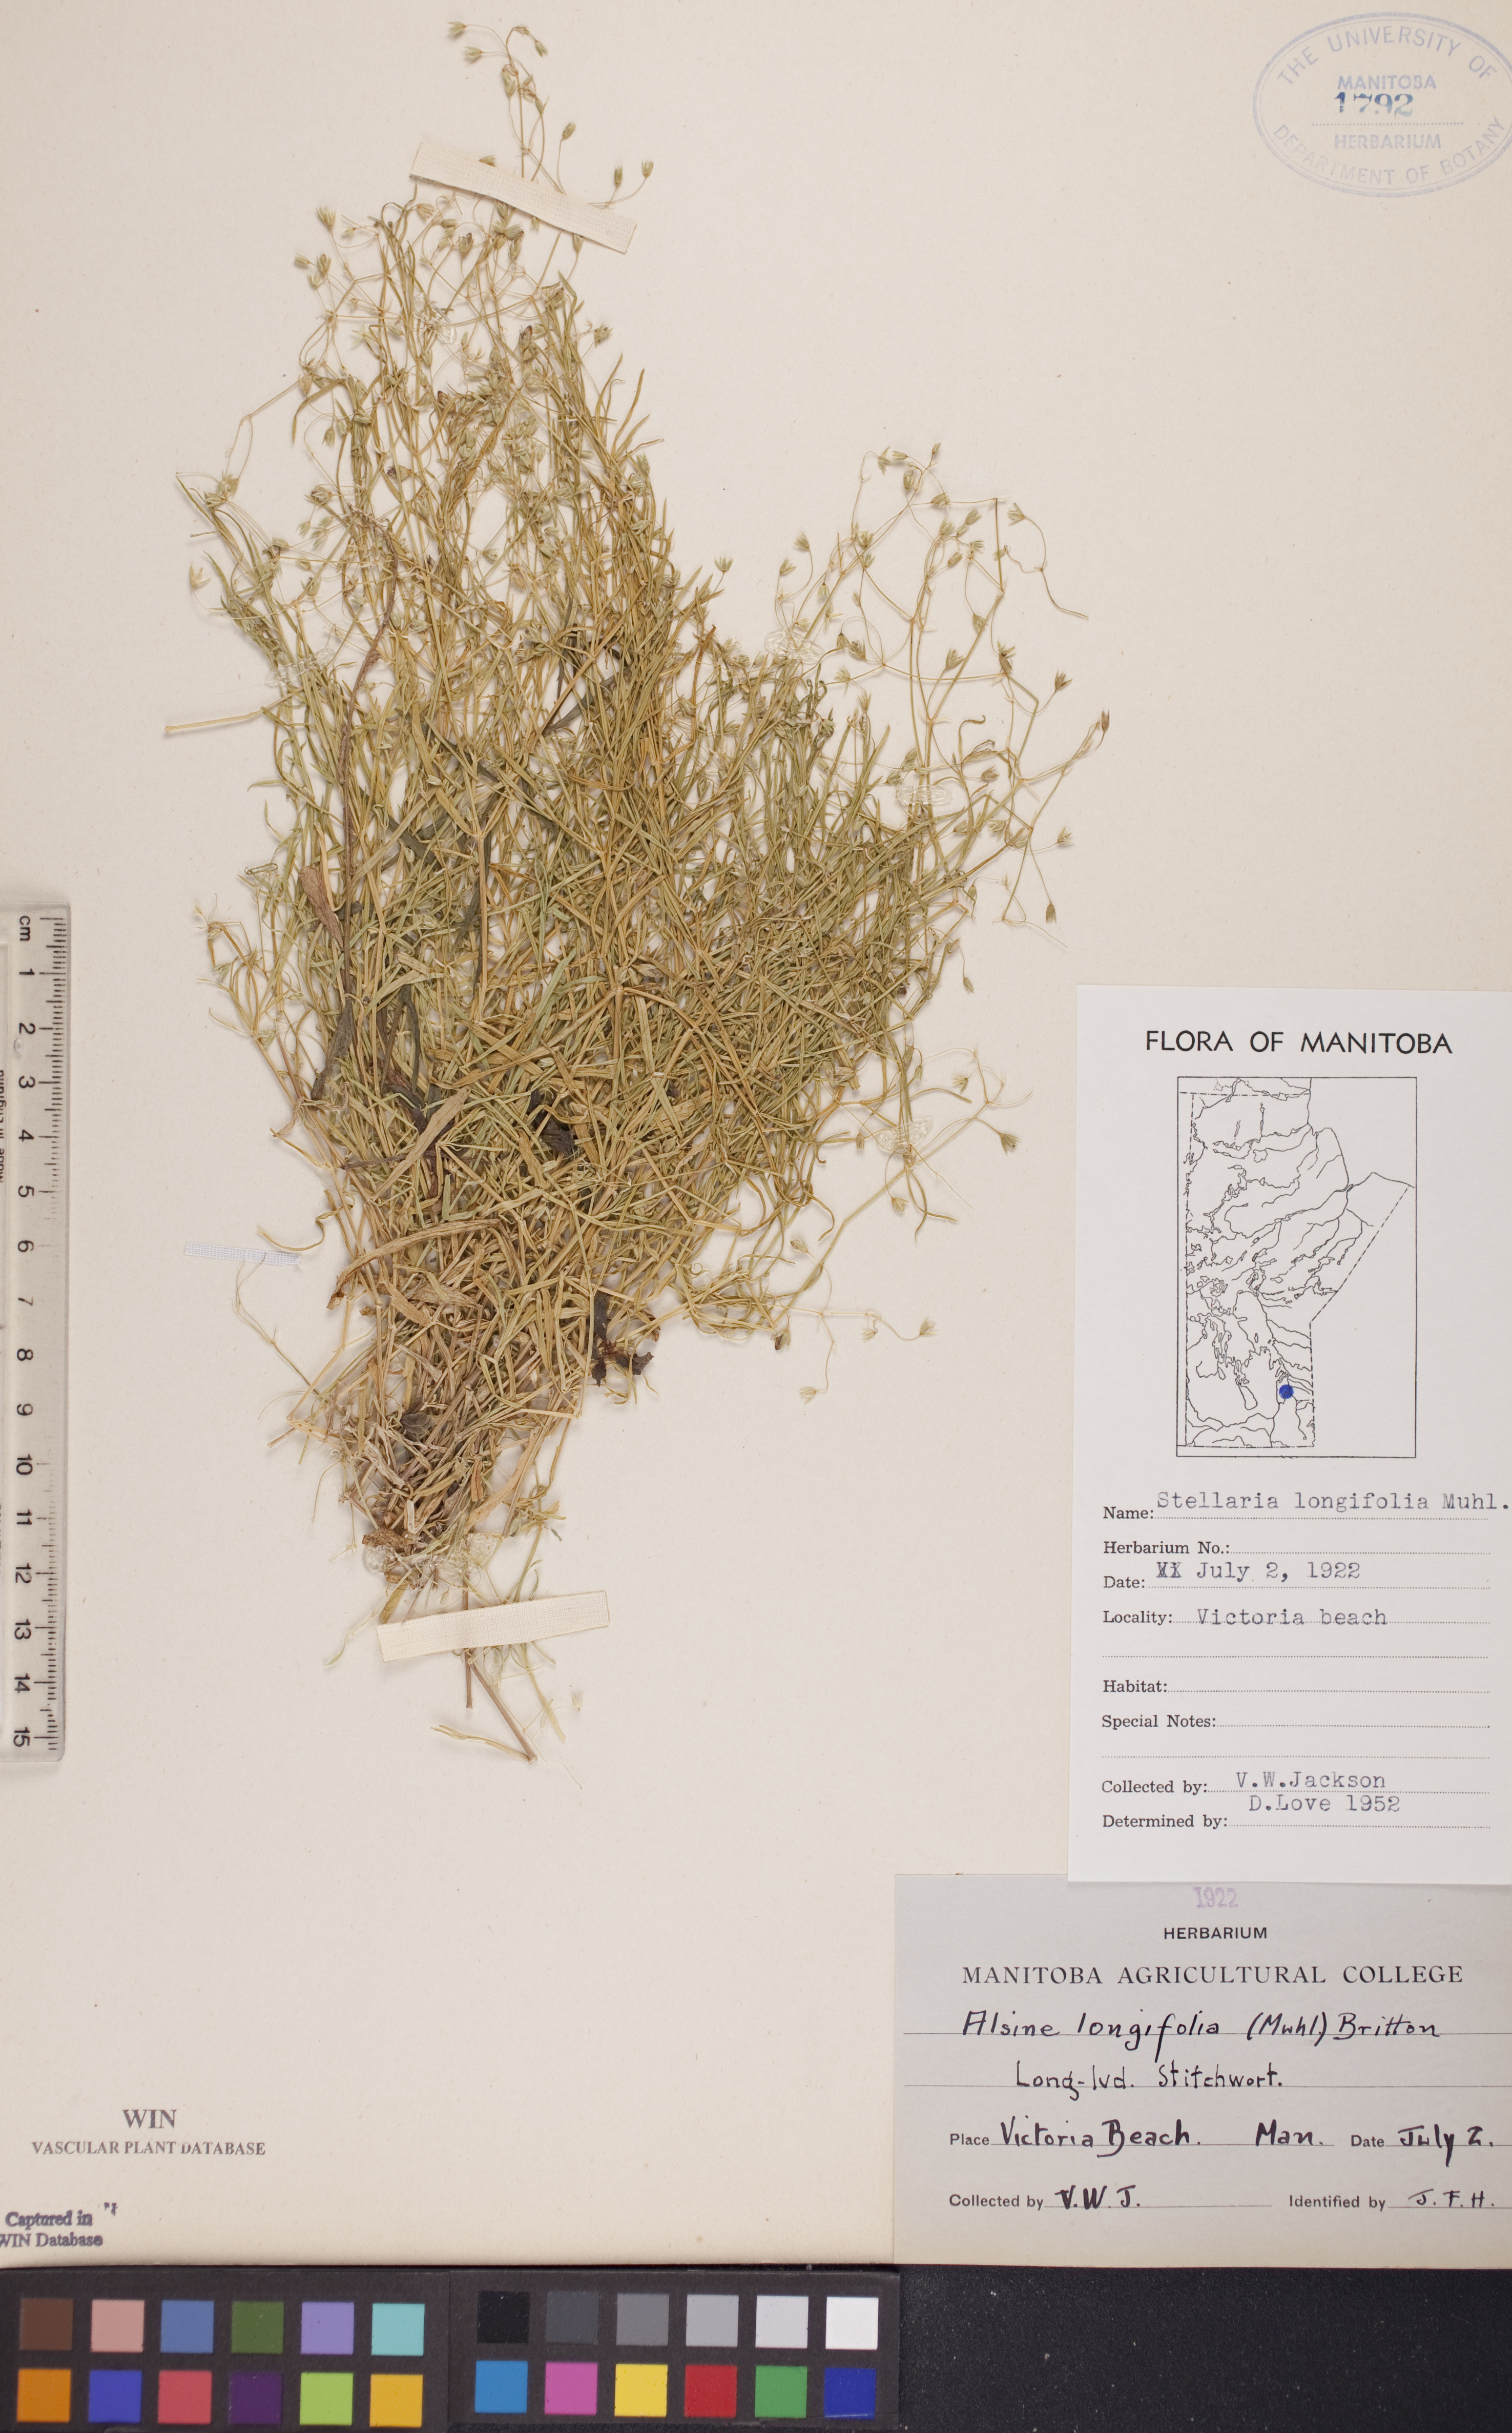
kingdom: Plantae
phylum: Tracheophyta
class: Magnoliopsida
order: Caryophyllales
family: Caryophyllaceae
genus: Stellaria
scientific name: Stellaria longifolia
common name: Long-leaved chickweed
